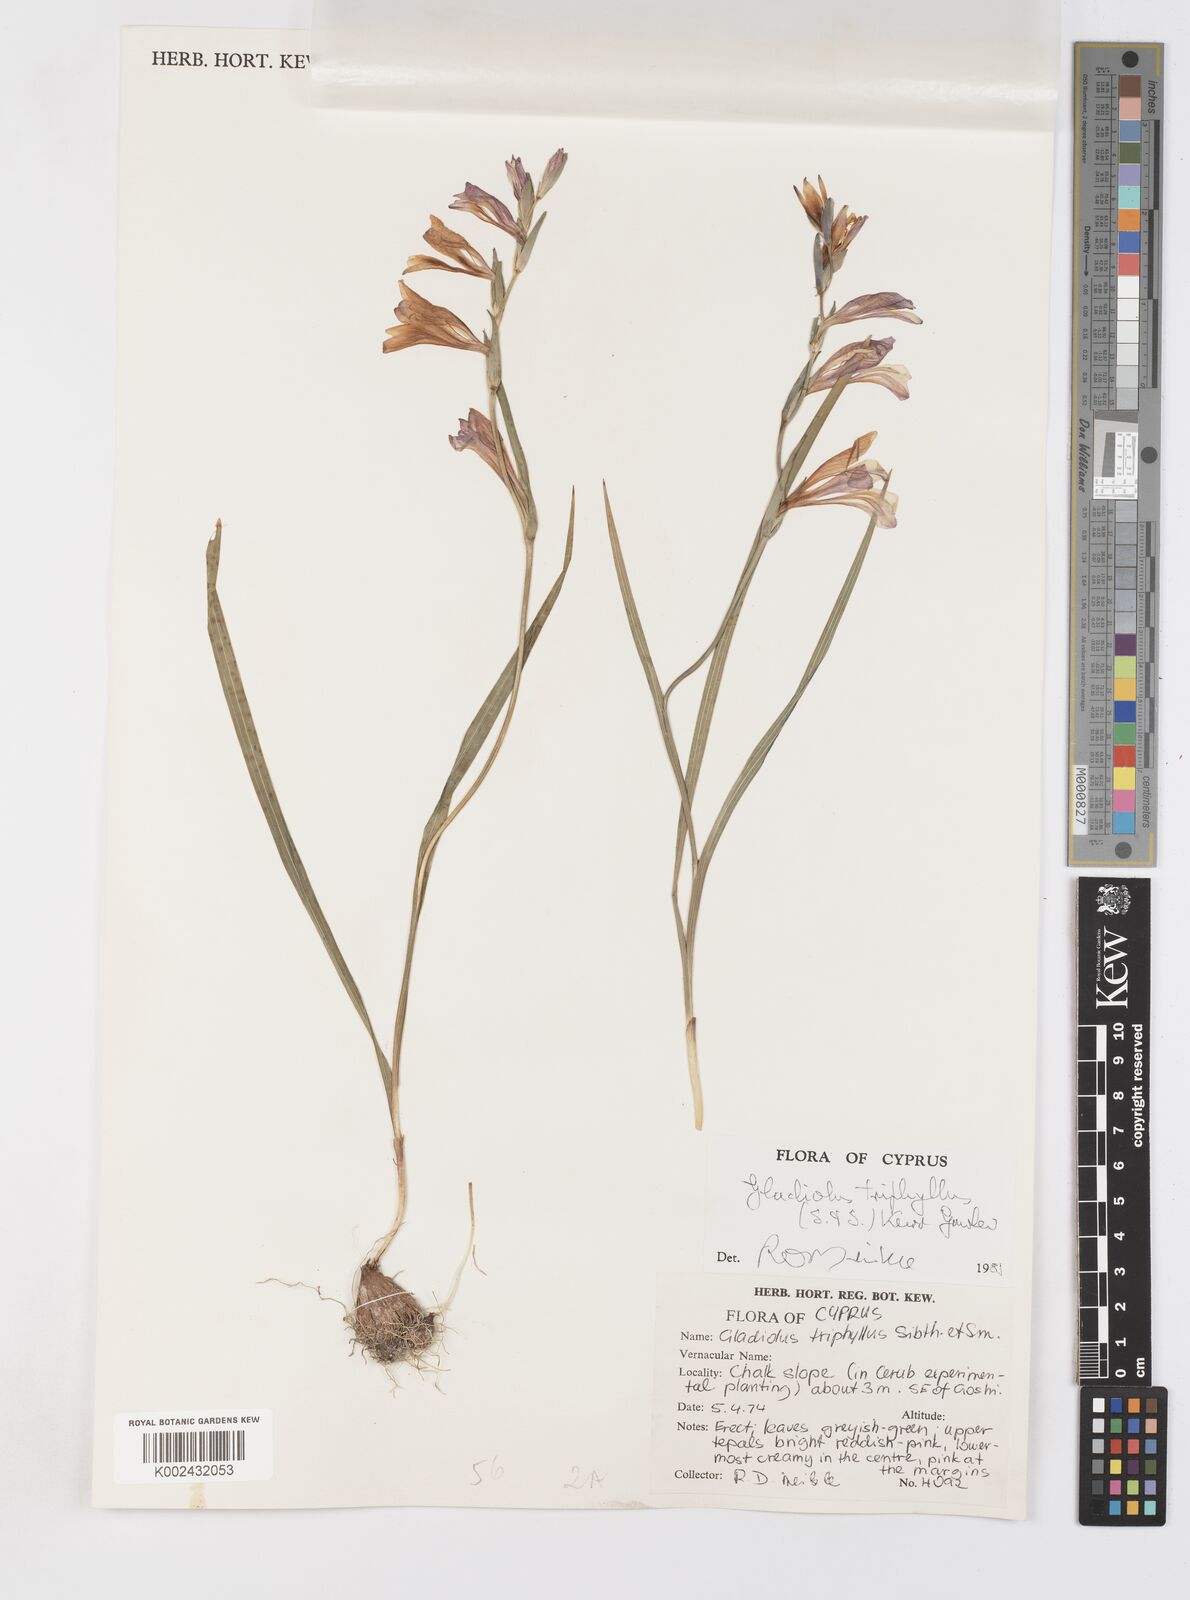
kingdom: Plantae
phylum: Tracheophyta
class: Liliopsida
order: Asparagales
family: Iridaceae
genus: Gladiolus
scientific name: Gladiolus triphyllus
